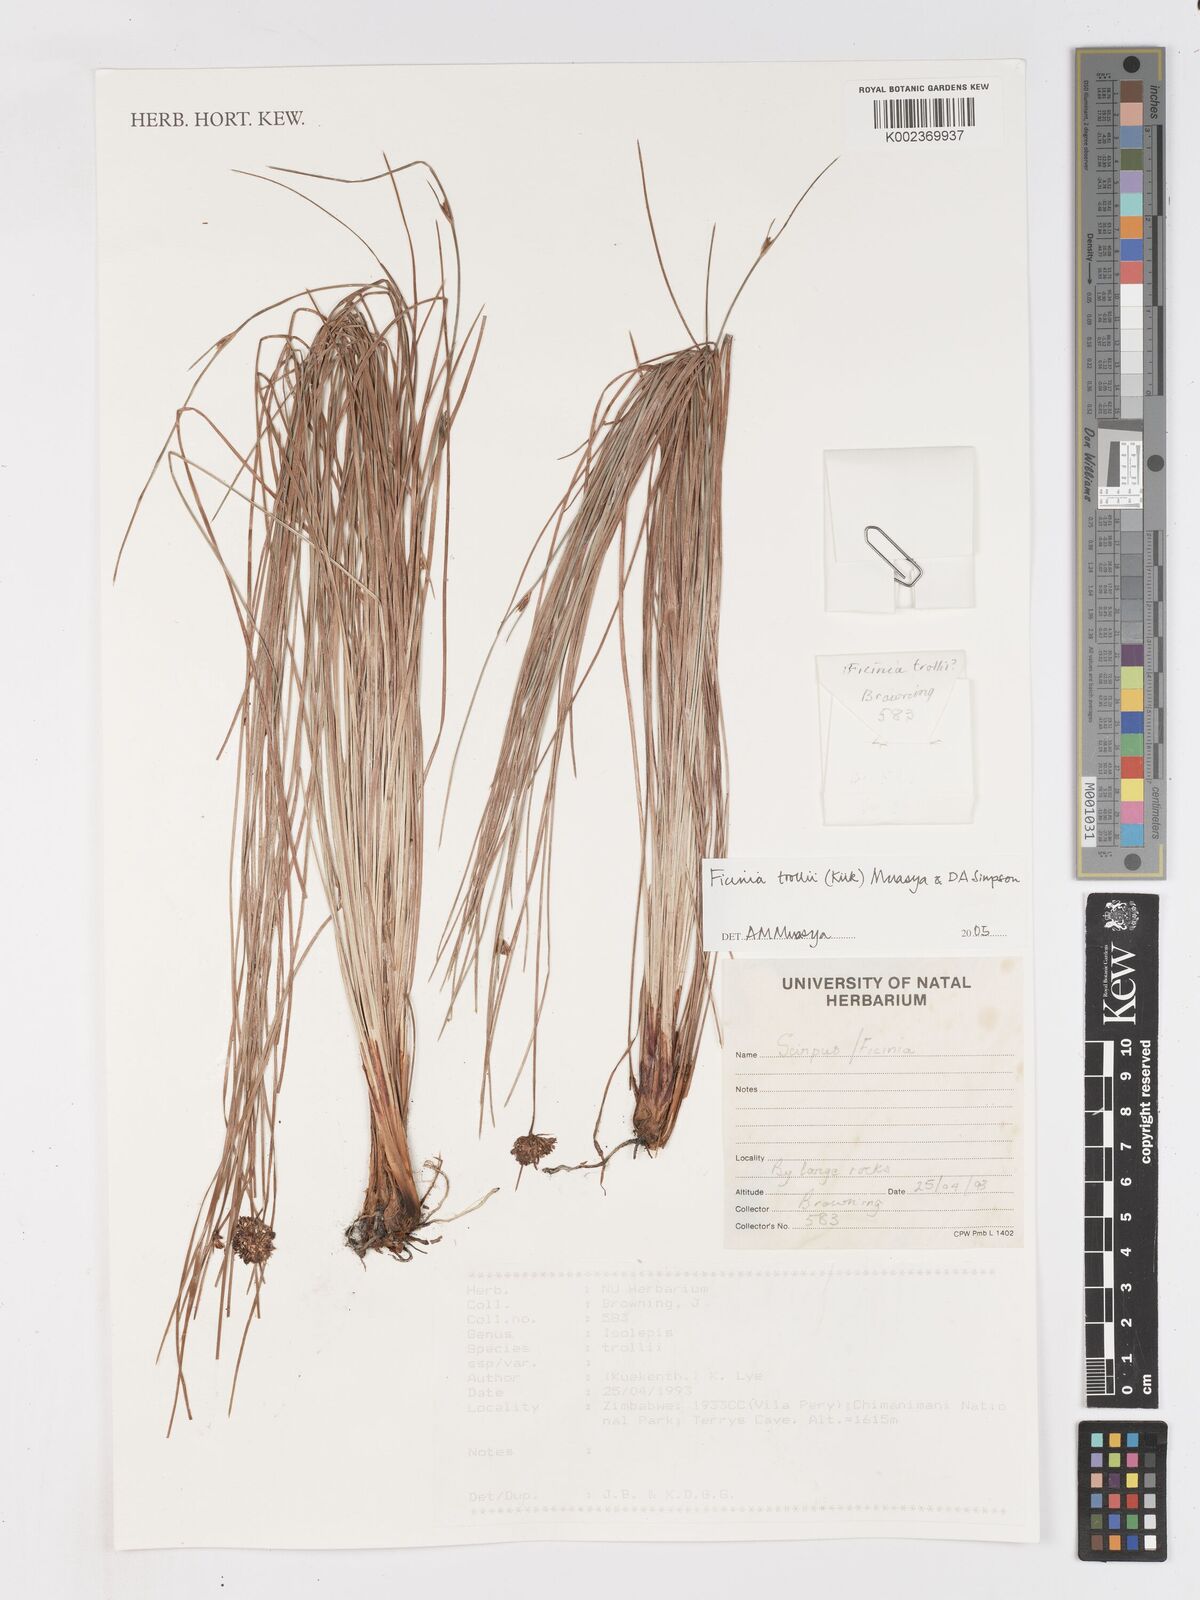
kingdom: Plantae
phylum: Tracheophyta
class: Liliopsida
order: Poales
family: Cyperaceae
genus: Ficinia
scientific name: Ficinia trollii
